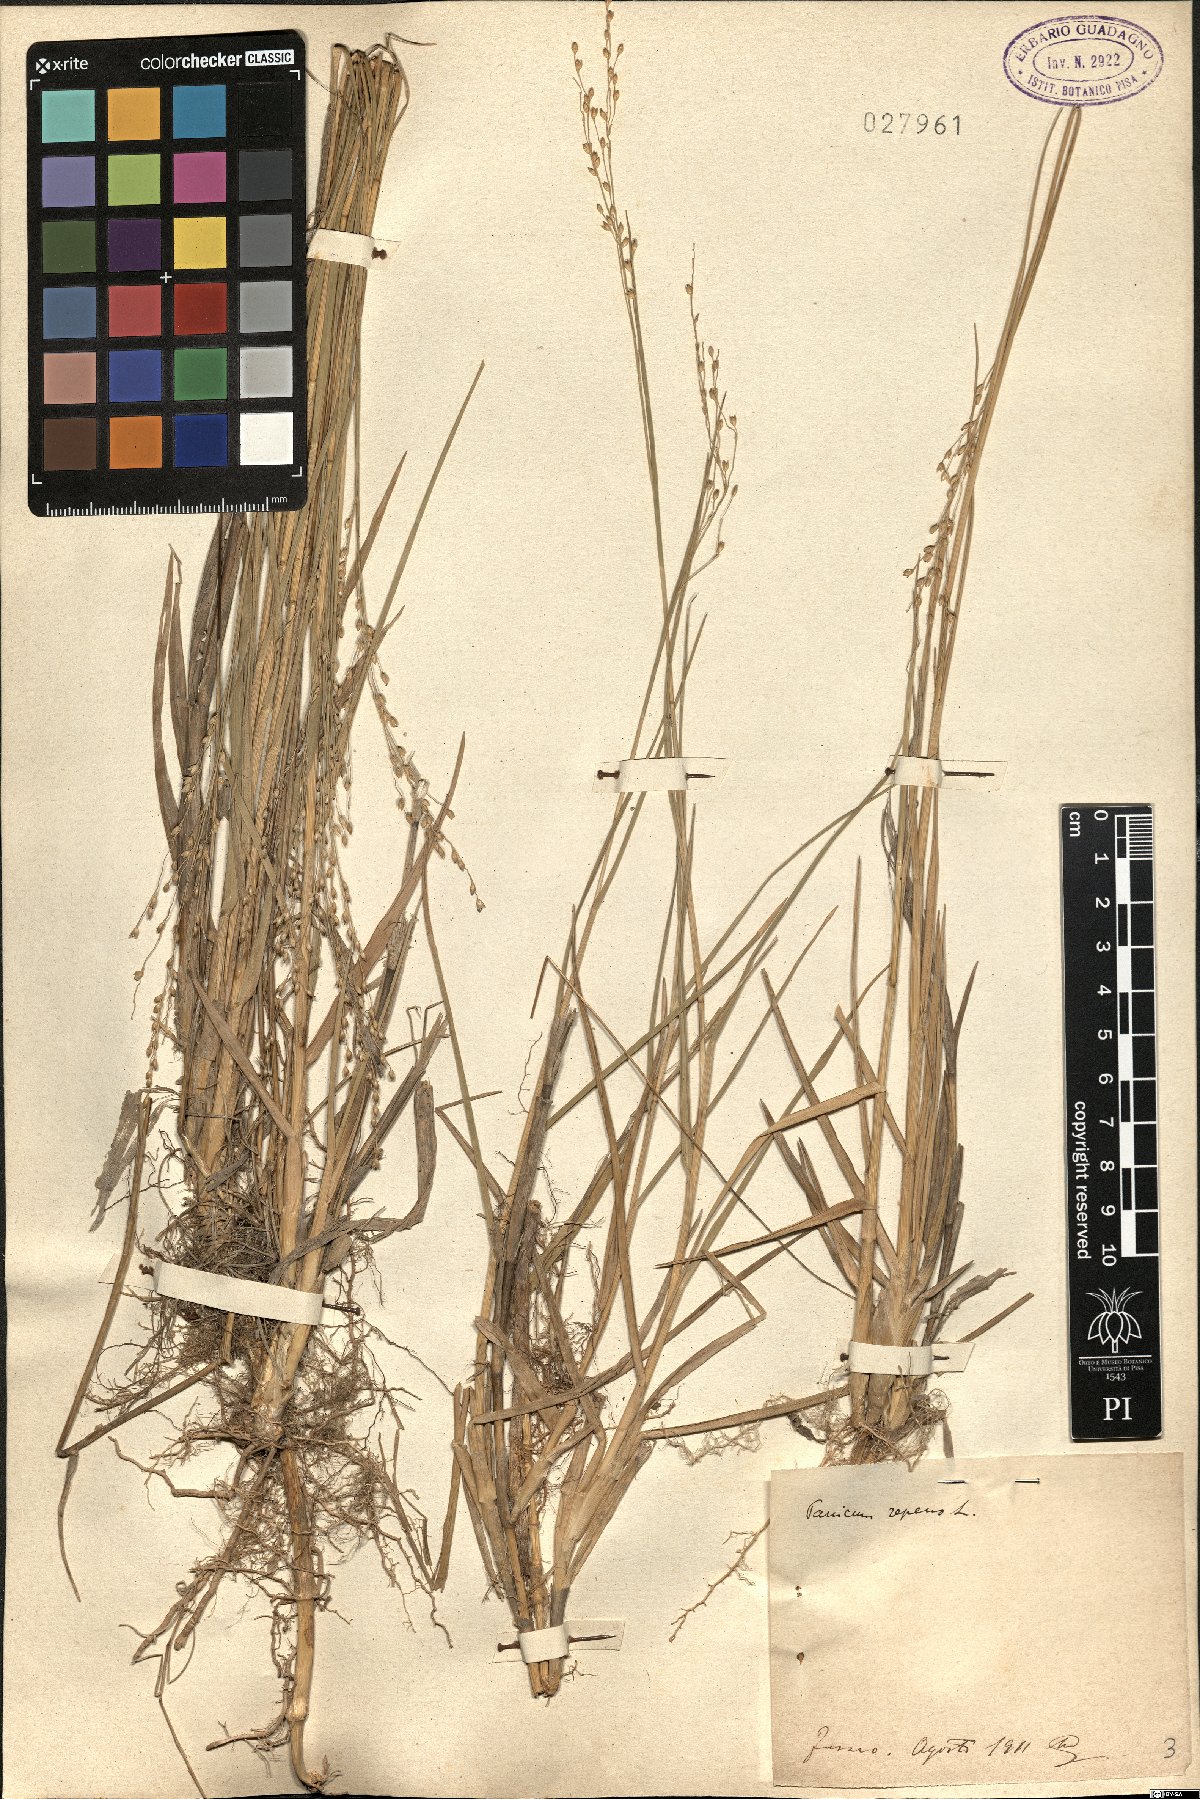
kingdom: Plantae
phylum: Tracheophyta
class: Liliopsida
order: Poales
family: Poaceae
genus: Panicum
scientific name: Panicum repens
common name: Torpedo grass
